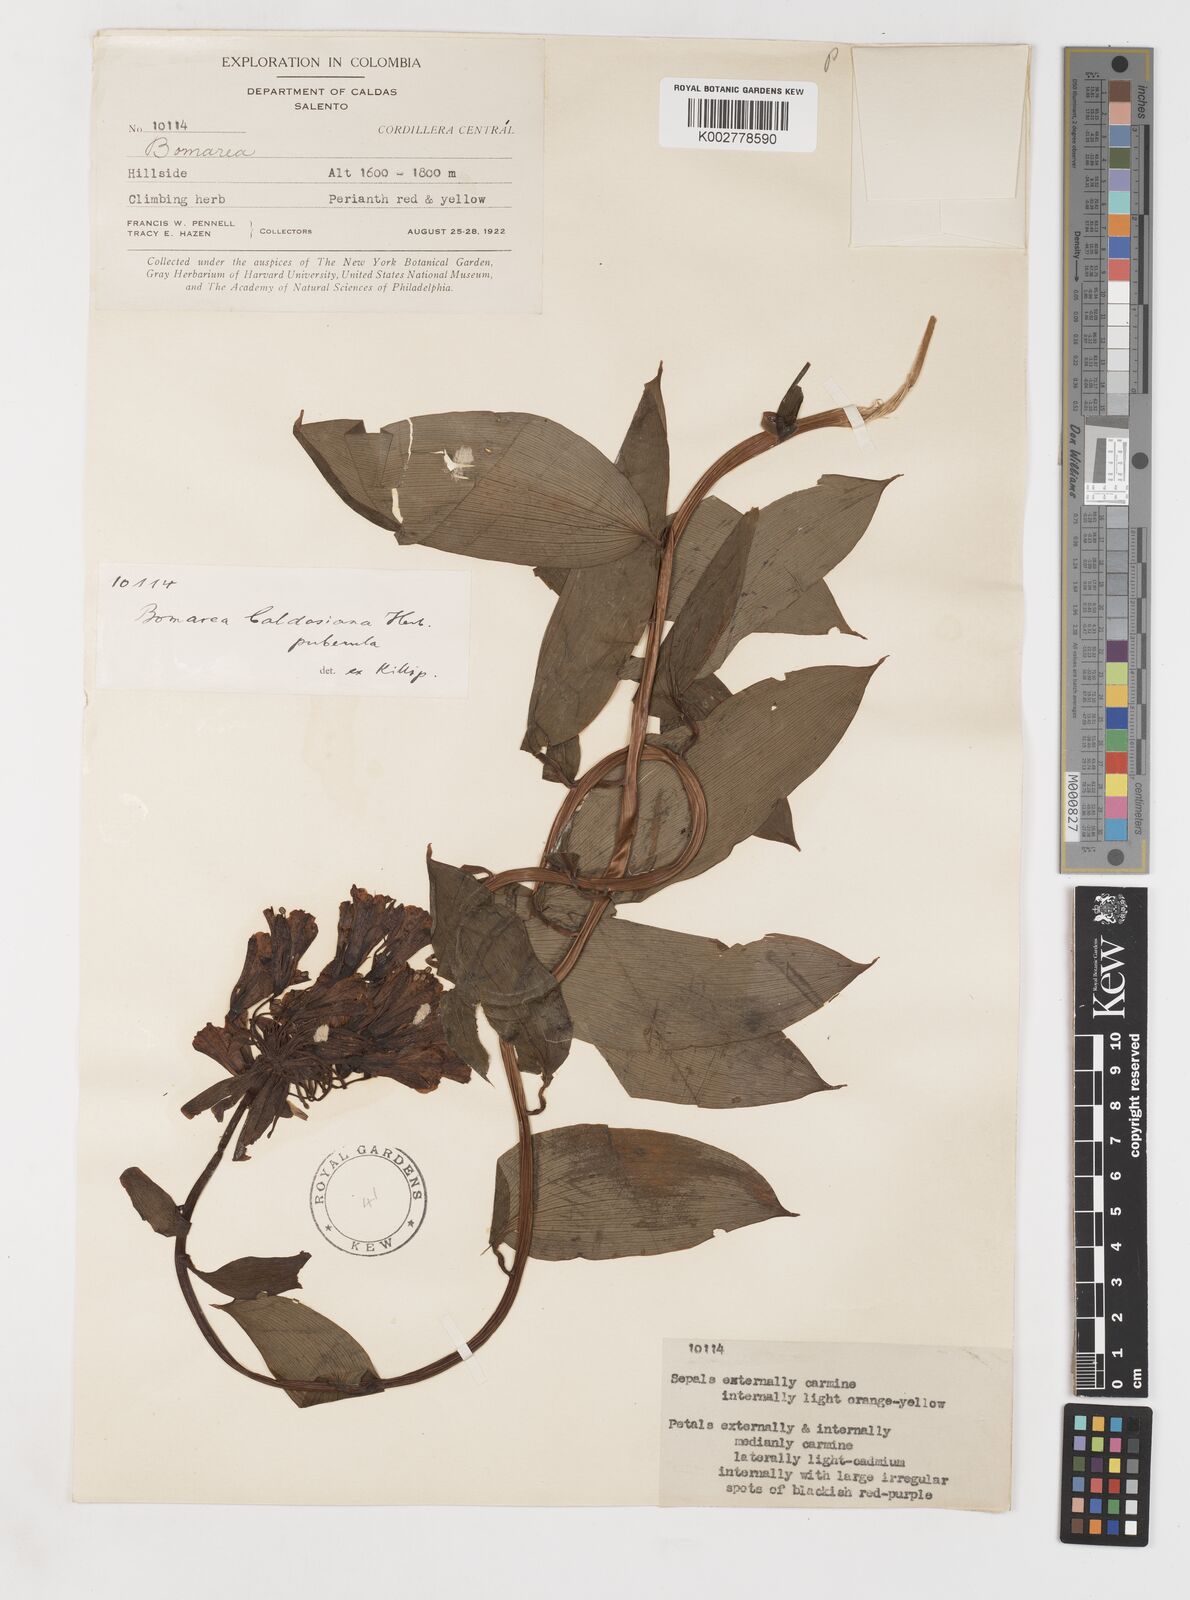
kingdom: Plantae
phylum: Tracheophyta
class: Liliopsida
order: Liliales
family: Alstroemeriaceae
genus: Bomarea
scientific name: Bomarea multiflora
